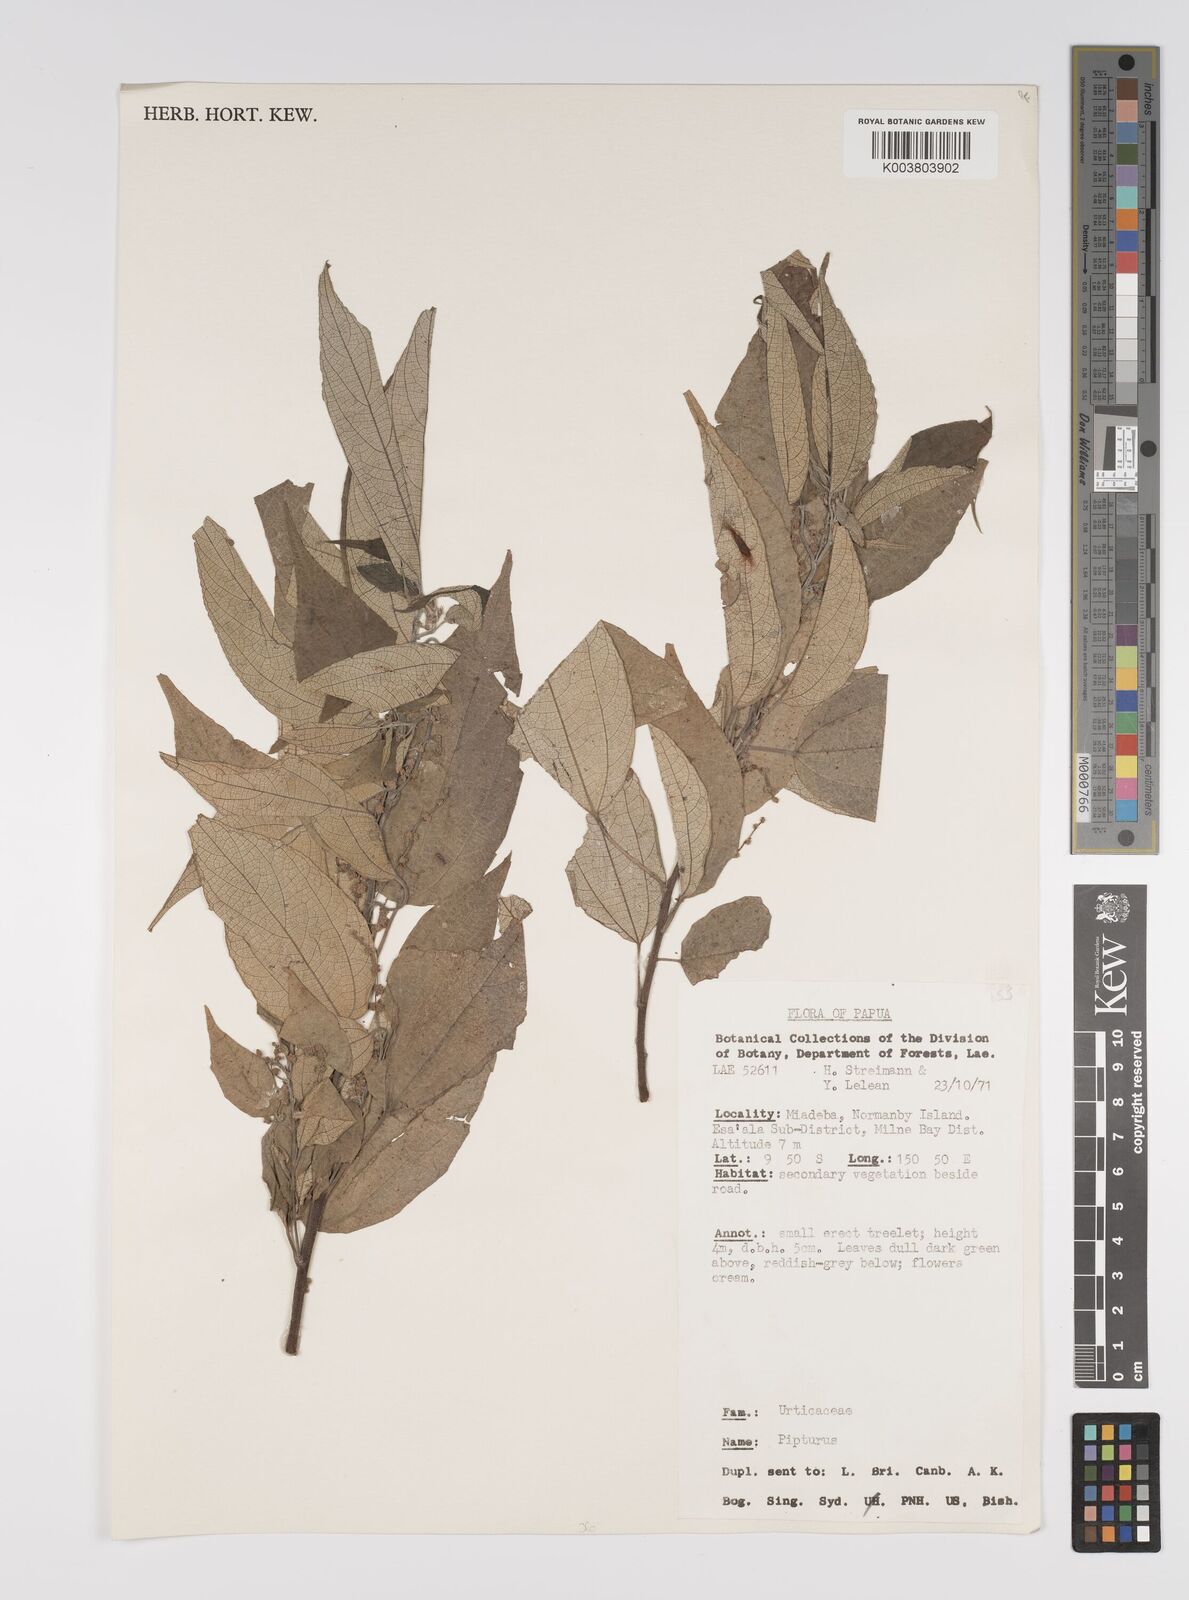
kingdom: Plantae
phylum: Tracheophyta
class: Magnoliopsida
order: Rosales
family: Urticaceae
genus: Pipturus
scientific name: Pipturus argenteus
